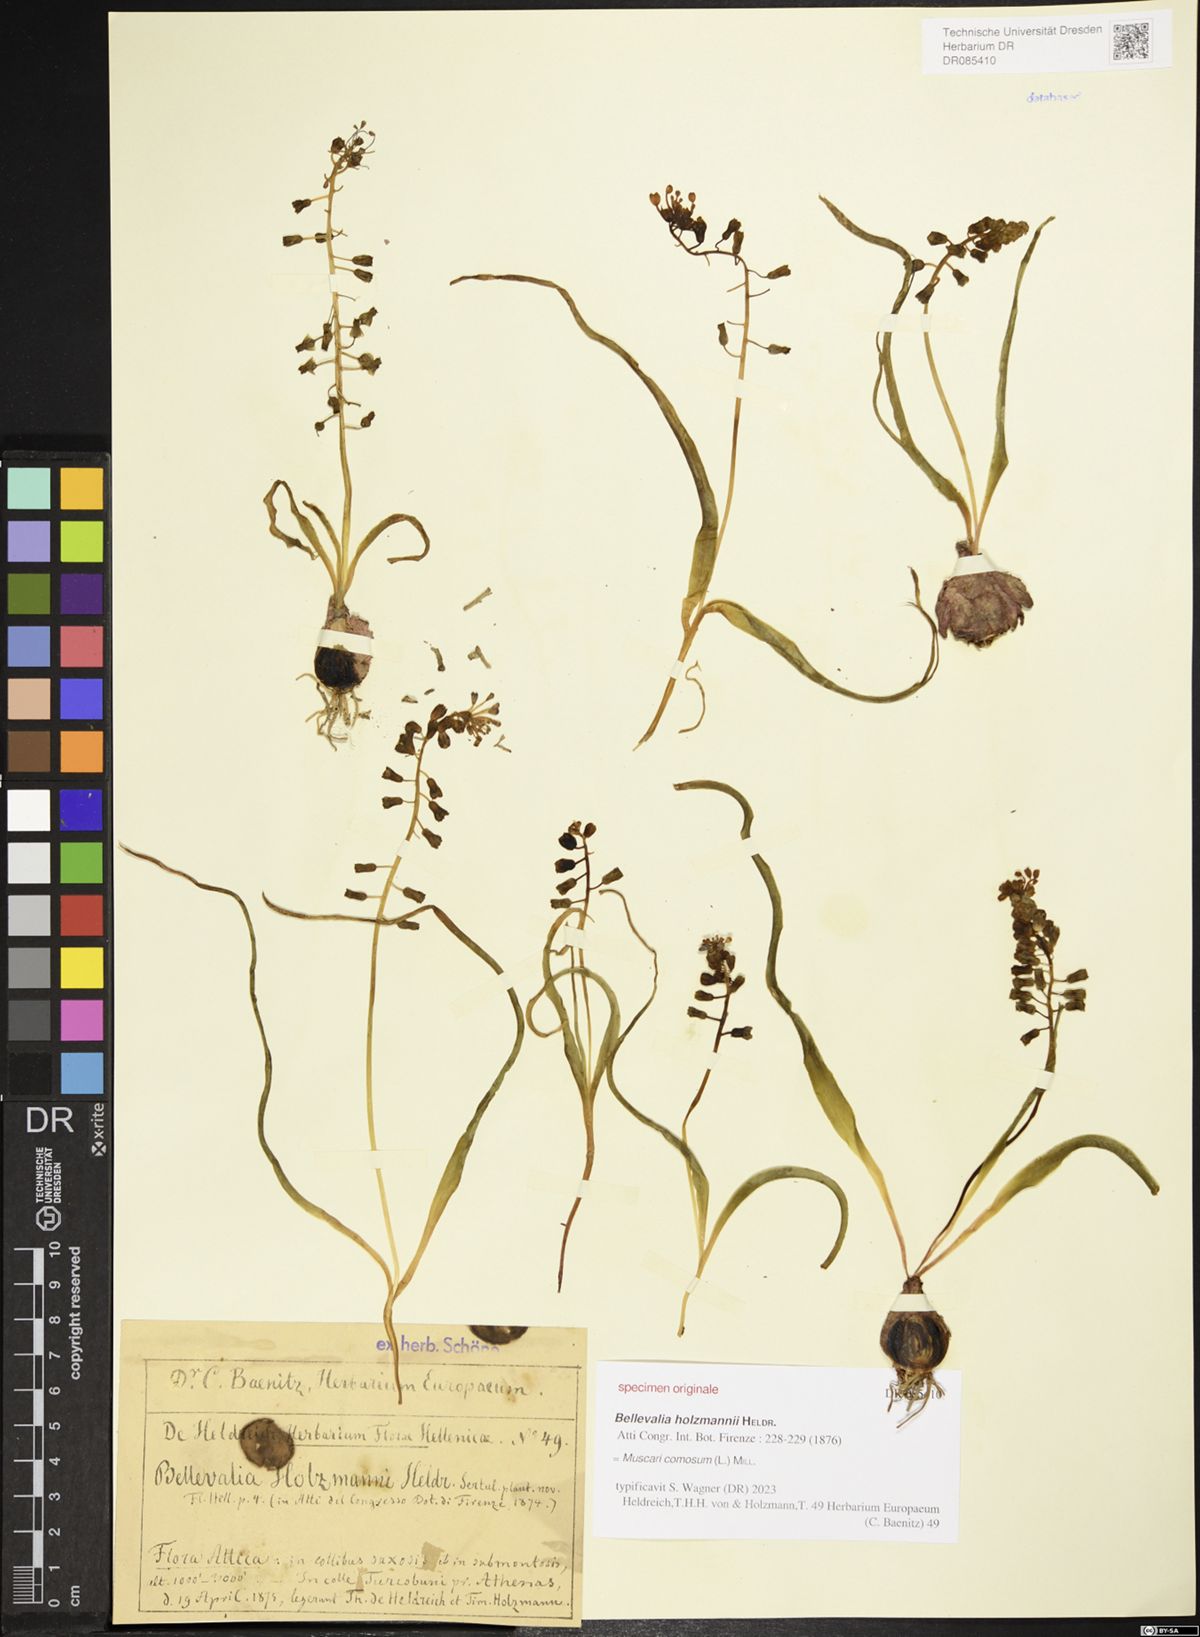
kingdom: Plantae
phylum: Tracheophyta
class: Liliopsida
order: Asparagales
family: Asparagaceae
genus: Muscari
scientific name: Muscari comosum
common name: Tassel hyacinth
